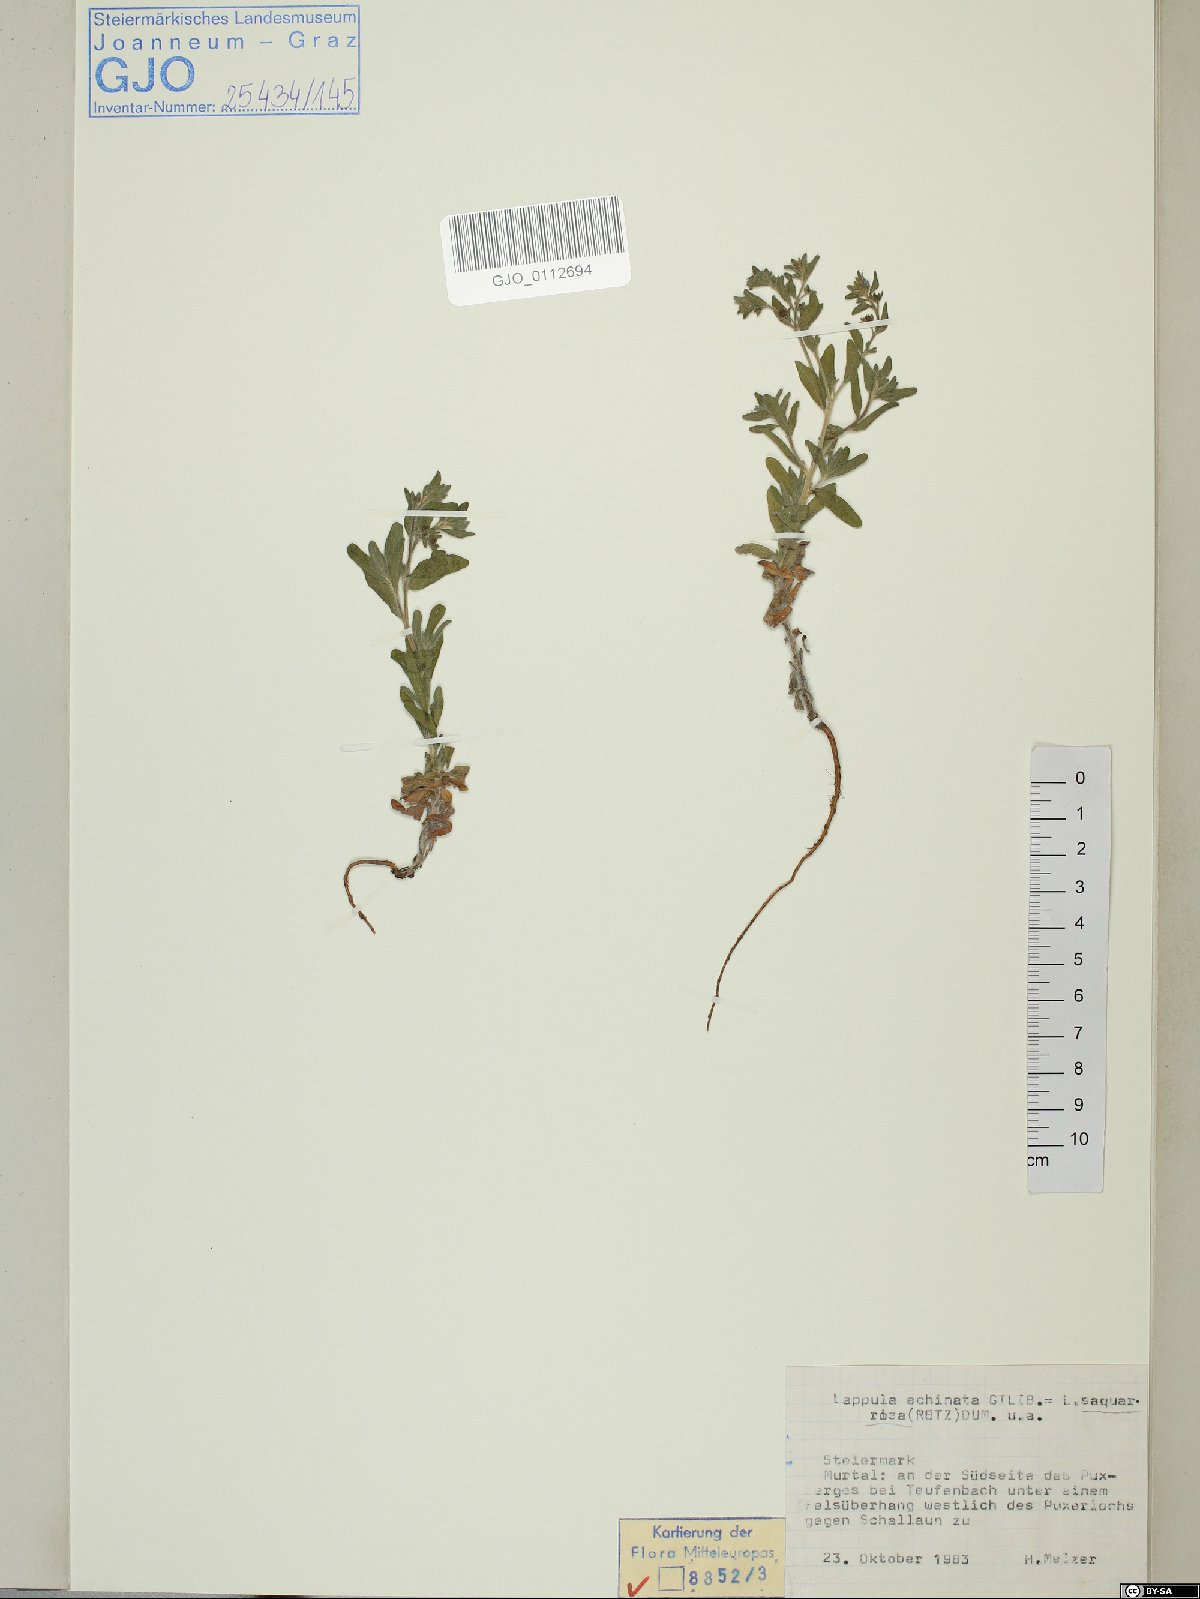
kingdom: Plantae
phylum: Tracheophyta
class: Magnoliopsida
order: Boraginales
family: Boraginaceae
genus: Lappula
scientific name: Lappula squarrosa
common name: European stickseed
